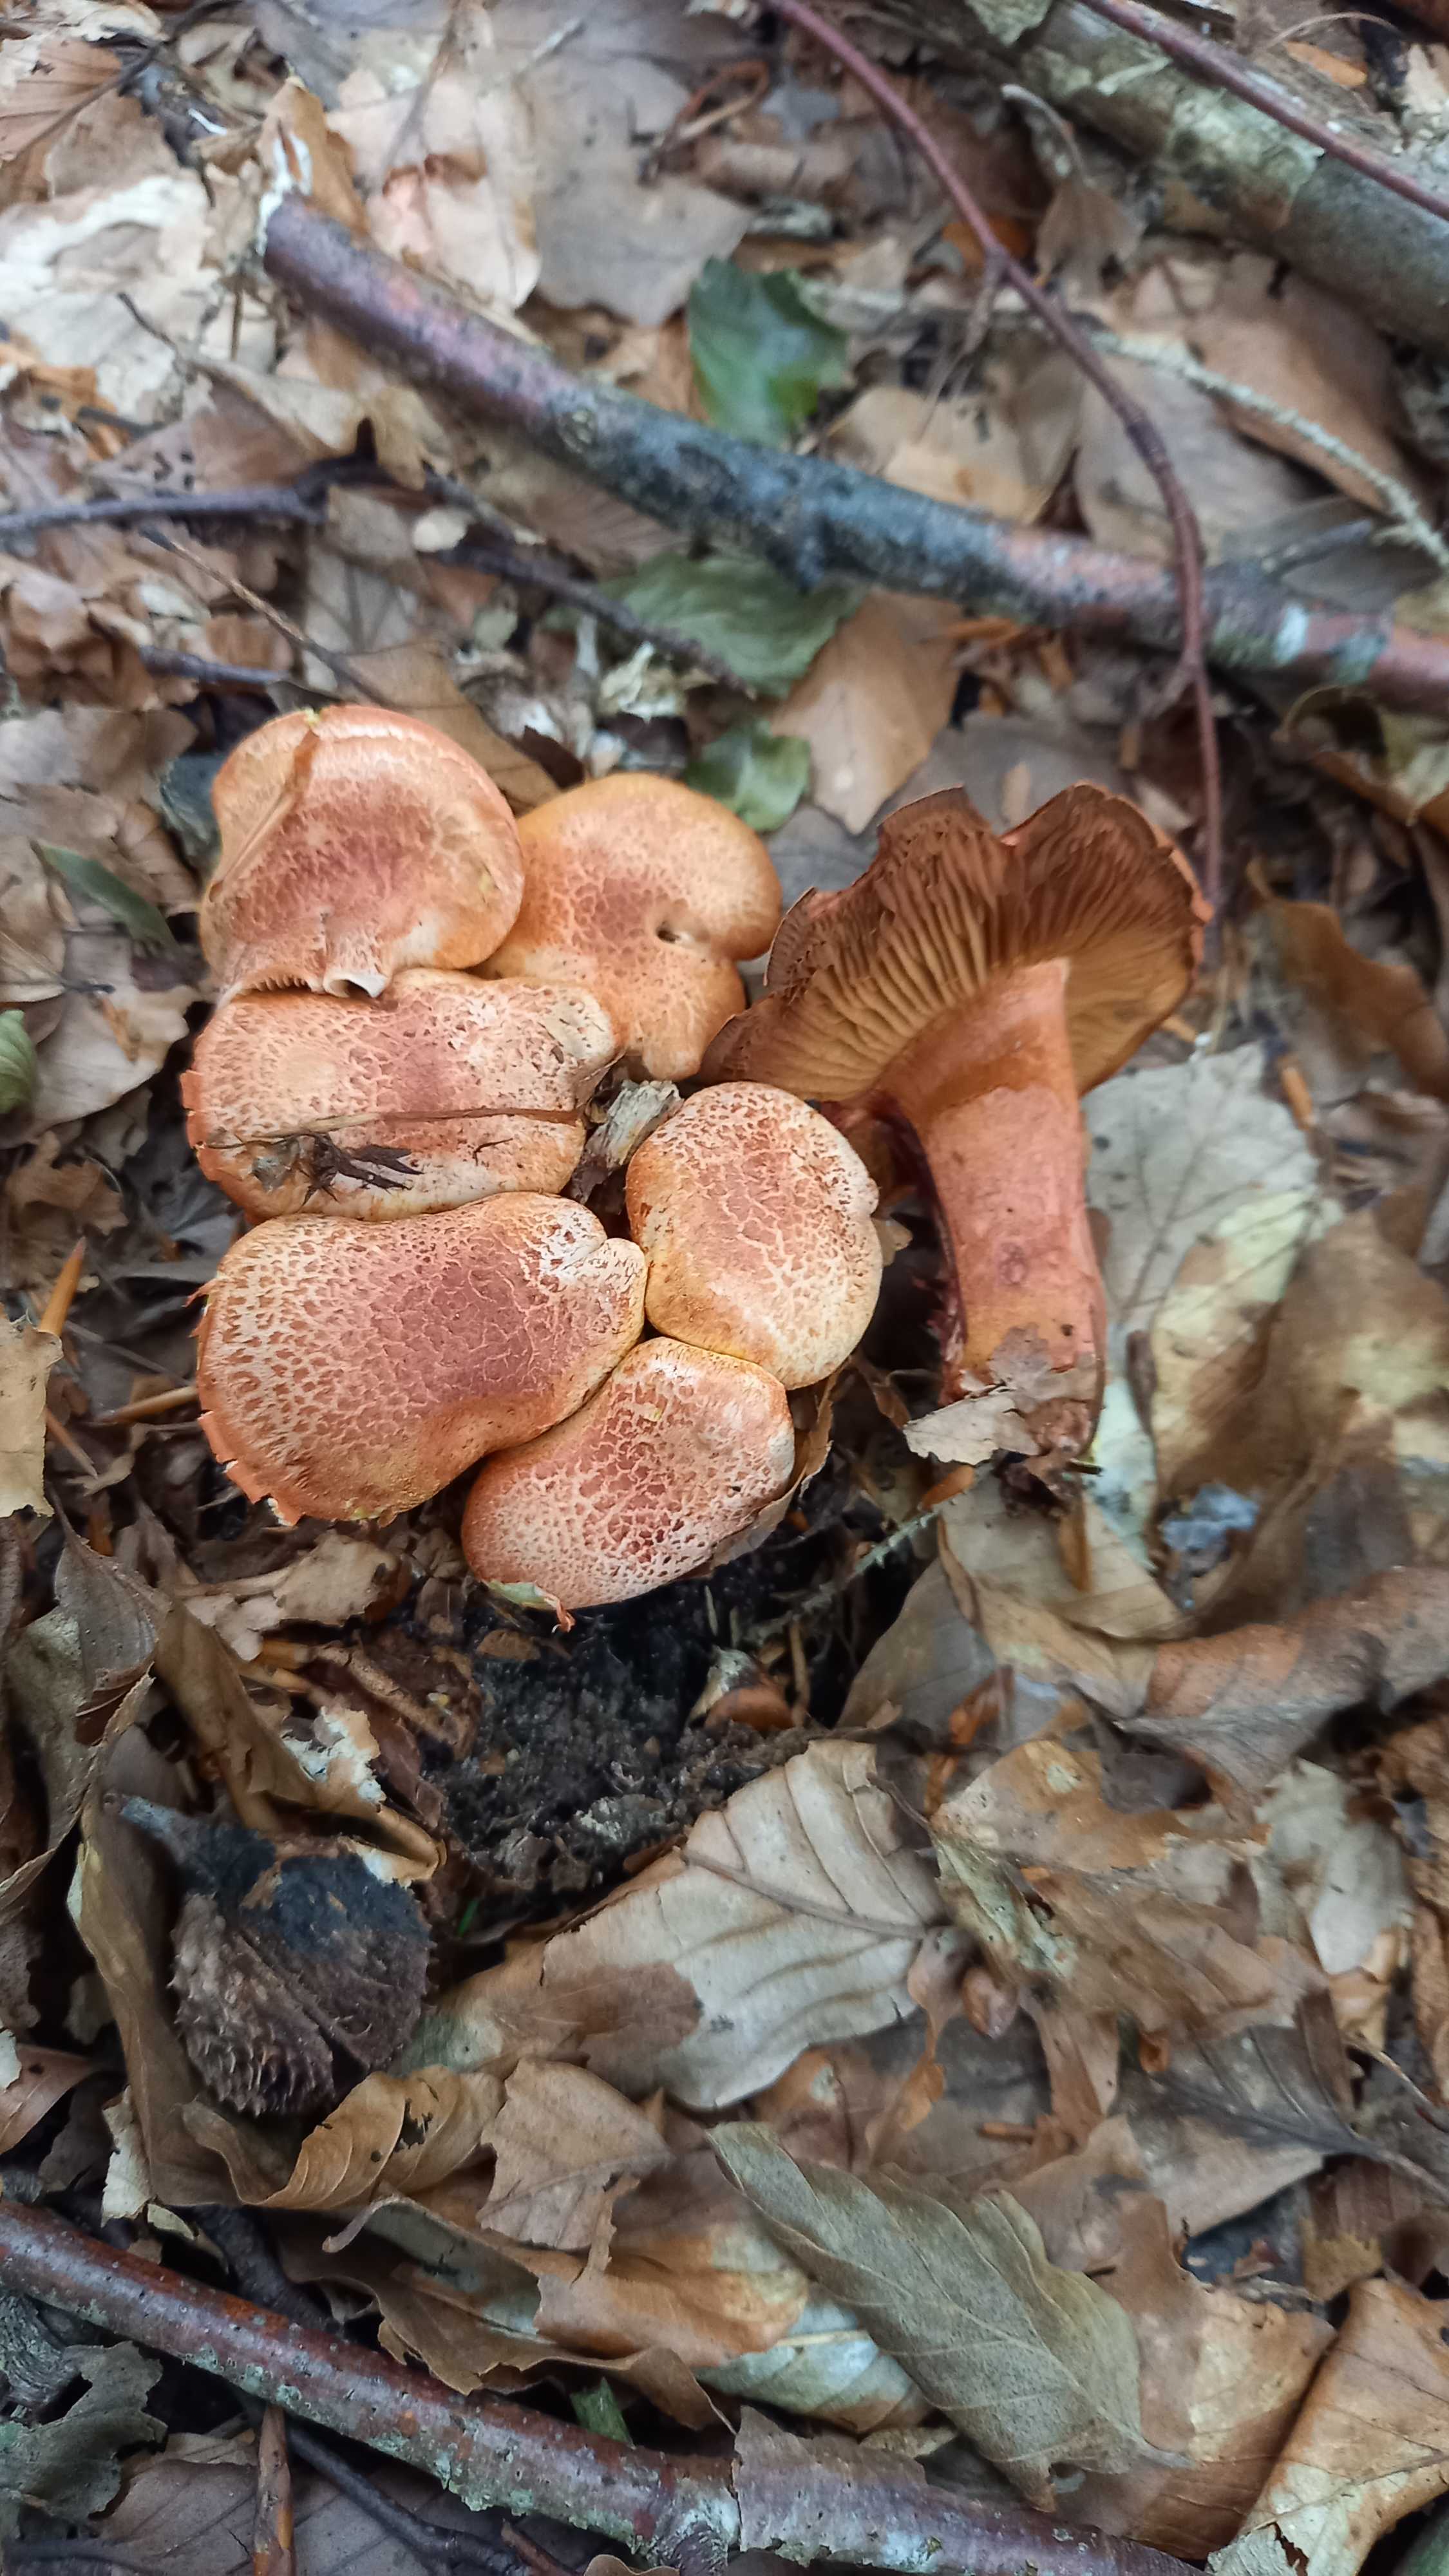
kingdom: Fungi
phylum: Basidiomycota
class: Agaricomycetes
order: Agaricales
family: Cortinariaceae
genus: Cortinarius
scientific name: Cortinarius bolaris
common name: cinnoberskællet slørhat
